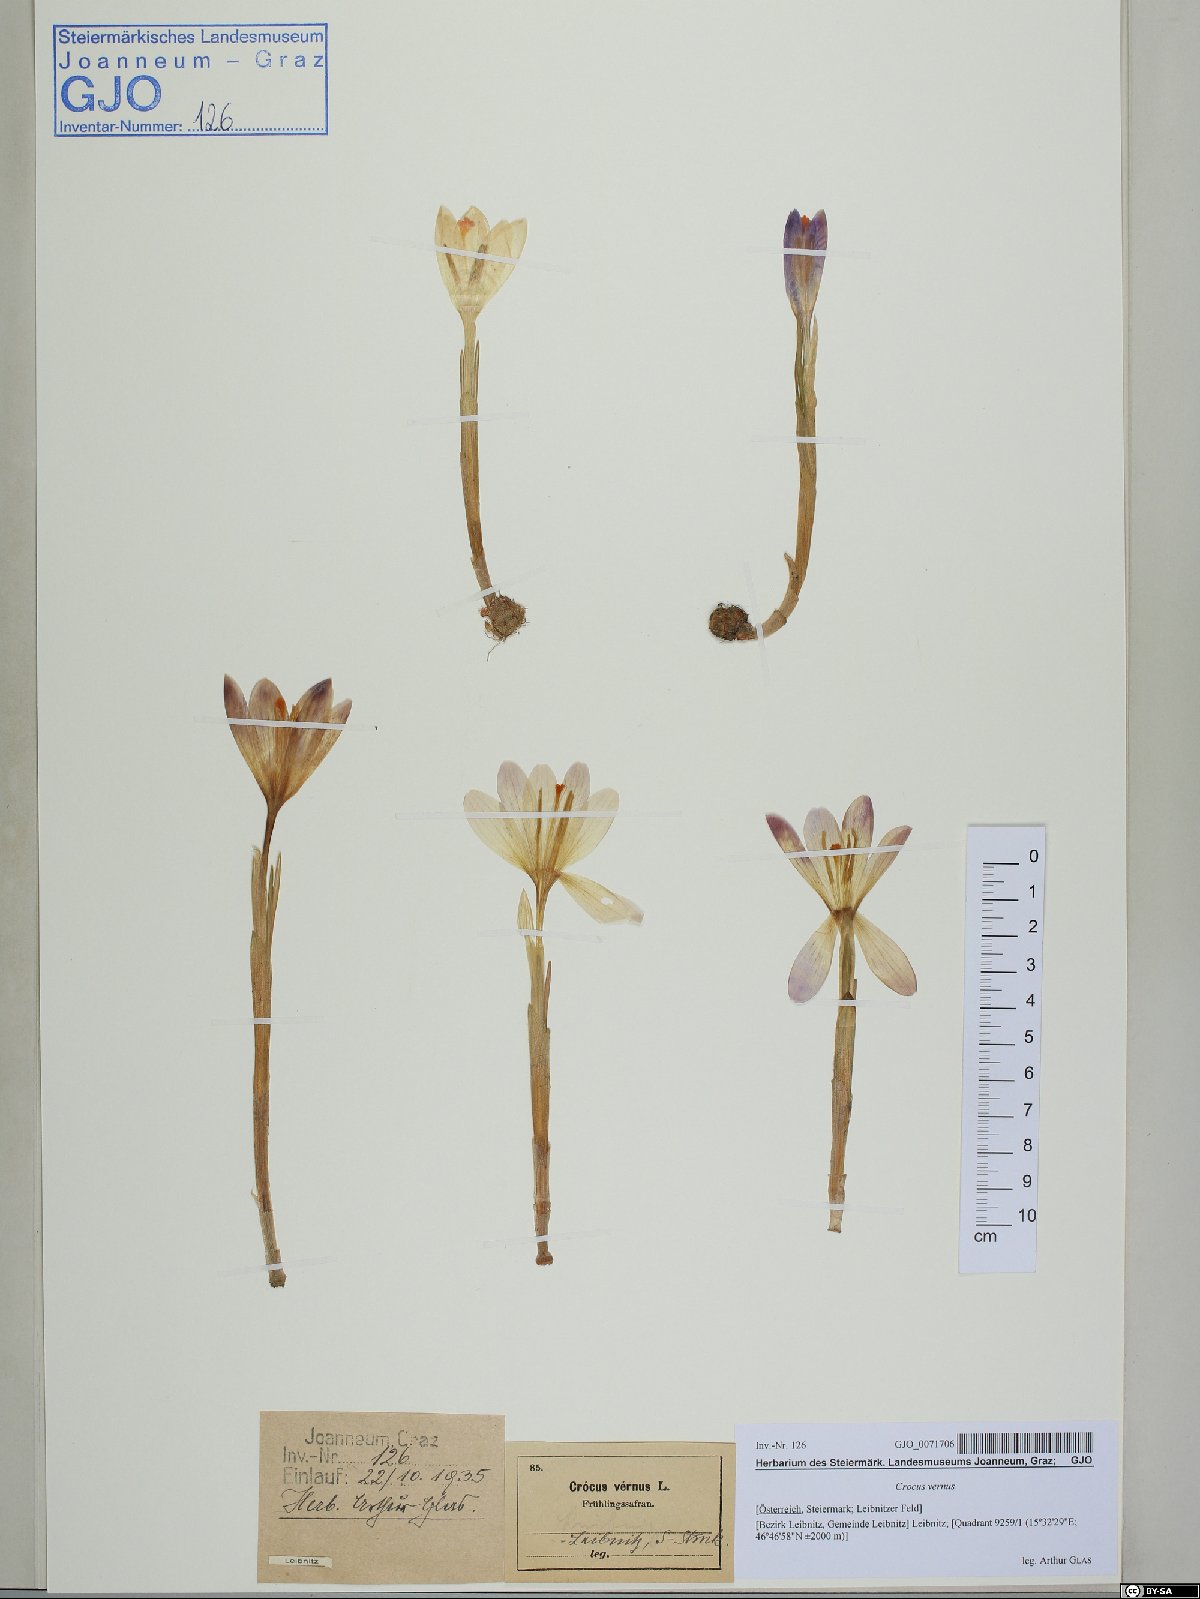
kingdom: Plantae
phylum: Tracheophyta
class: Liliopsida
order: Asparagales
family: Iridaceae
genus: Crocus
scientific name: Crocus vernus
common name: Spring crocus
